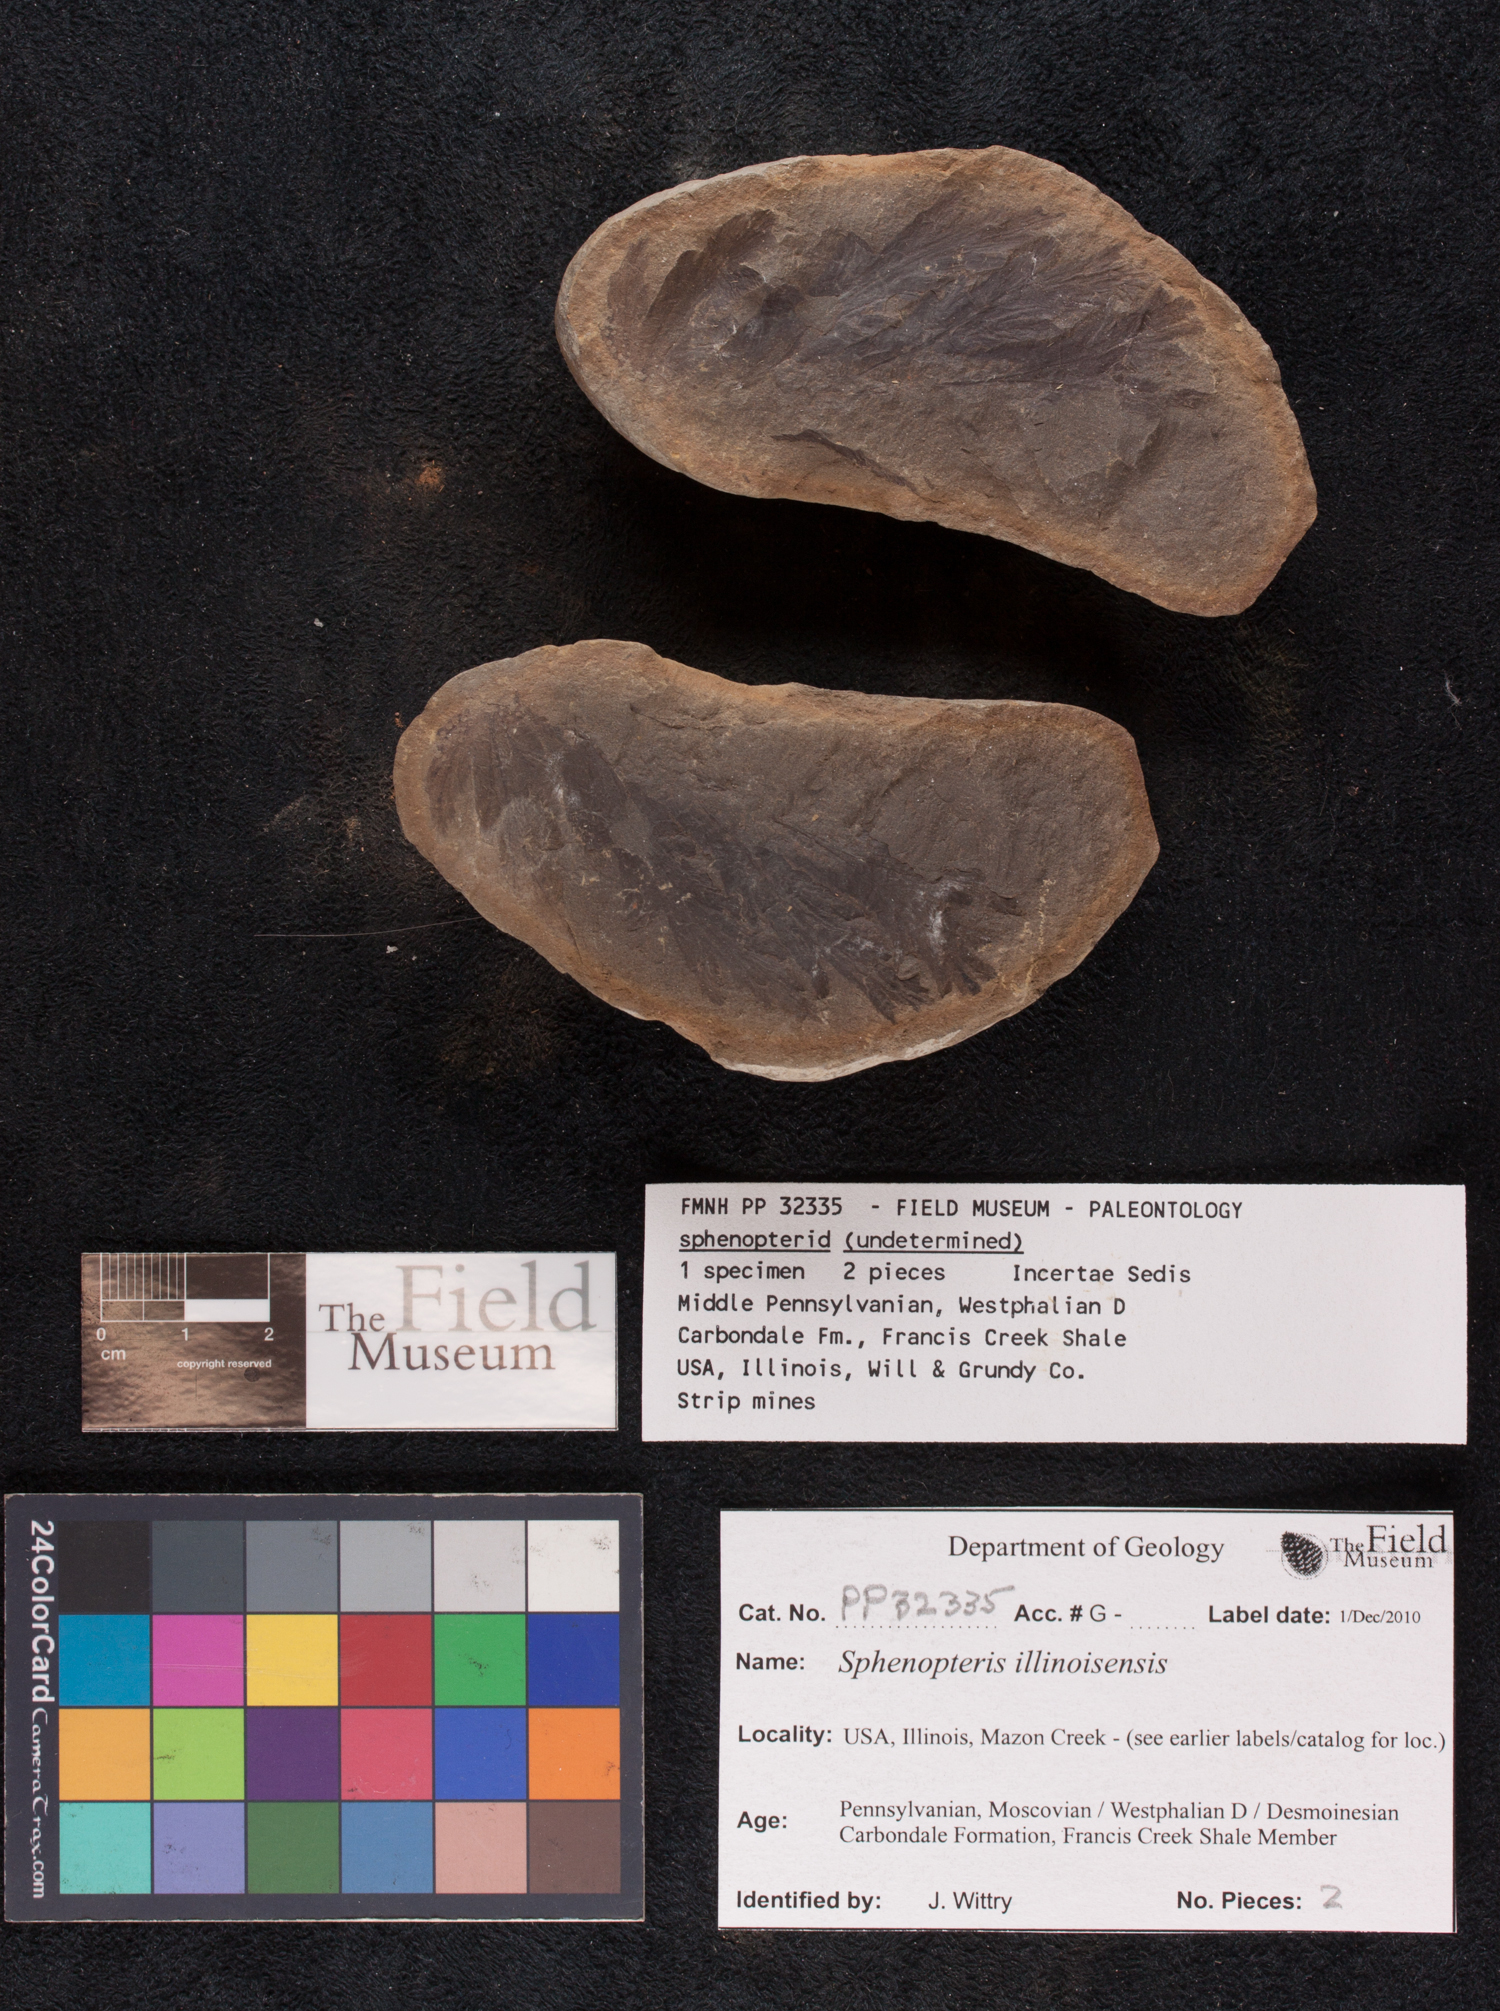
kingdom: Plantae
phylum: Tracheophyta
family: Lyginopteridaceae
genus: Sphenopteris
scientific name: Sphenopteris
